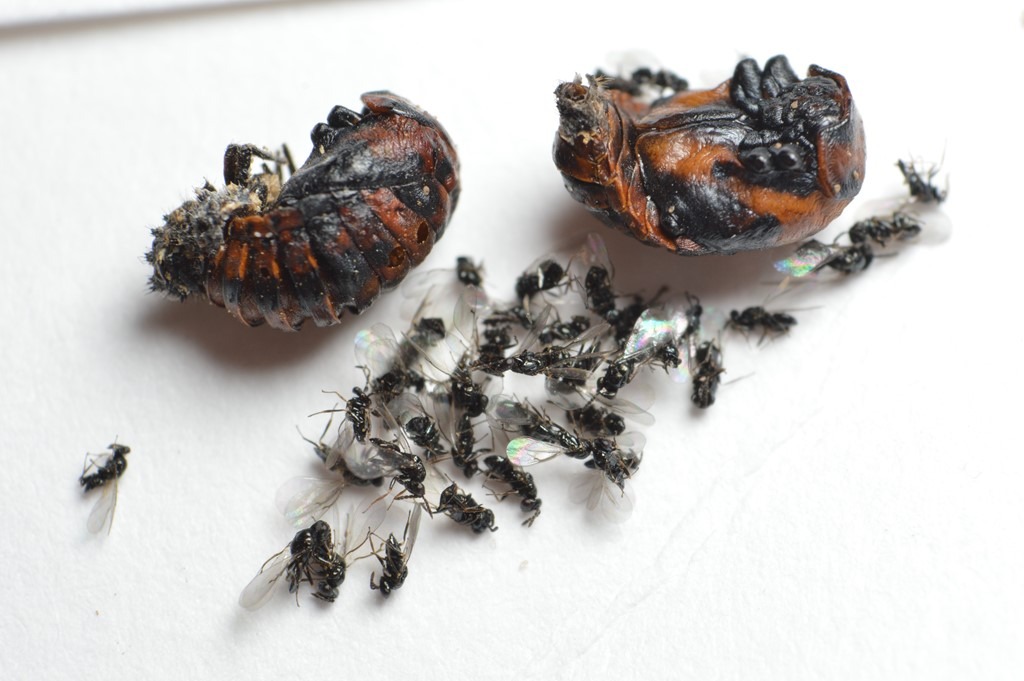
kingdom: Animalia
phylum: Arthropoda
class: Insecta
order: Hymenoptera
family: Eulophidae
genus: Oomyzus
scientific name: Oomyzus scaposus
